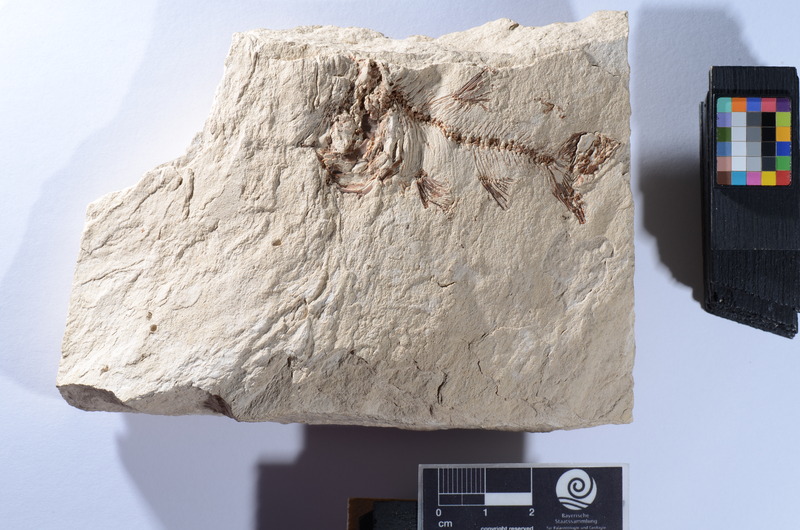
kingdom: Animalia
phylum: Chordata
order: Cypriniformes
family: Cyprinidae
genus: Luxilus
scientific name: Luxilus cornutus
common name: Common shiner
